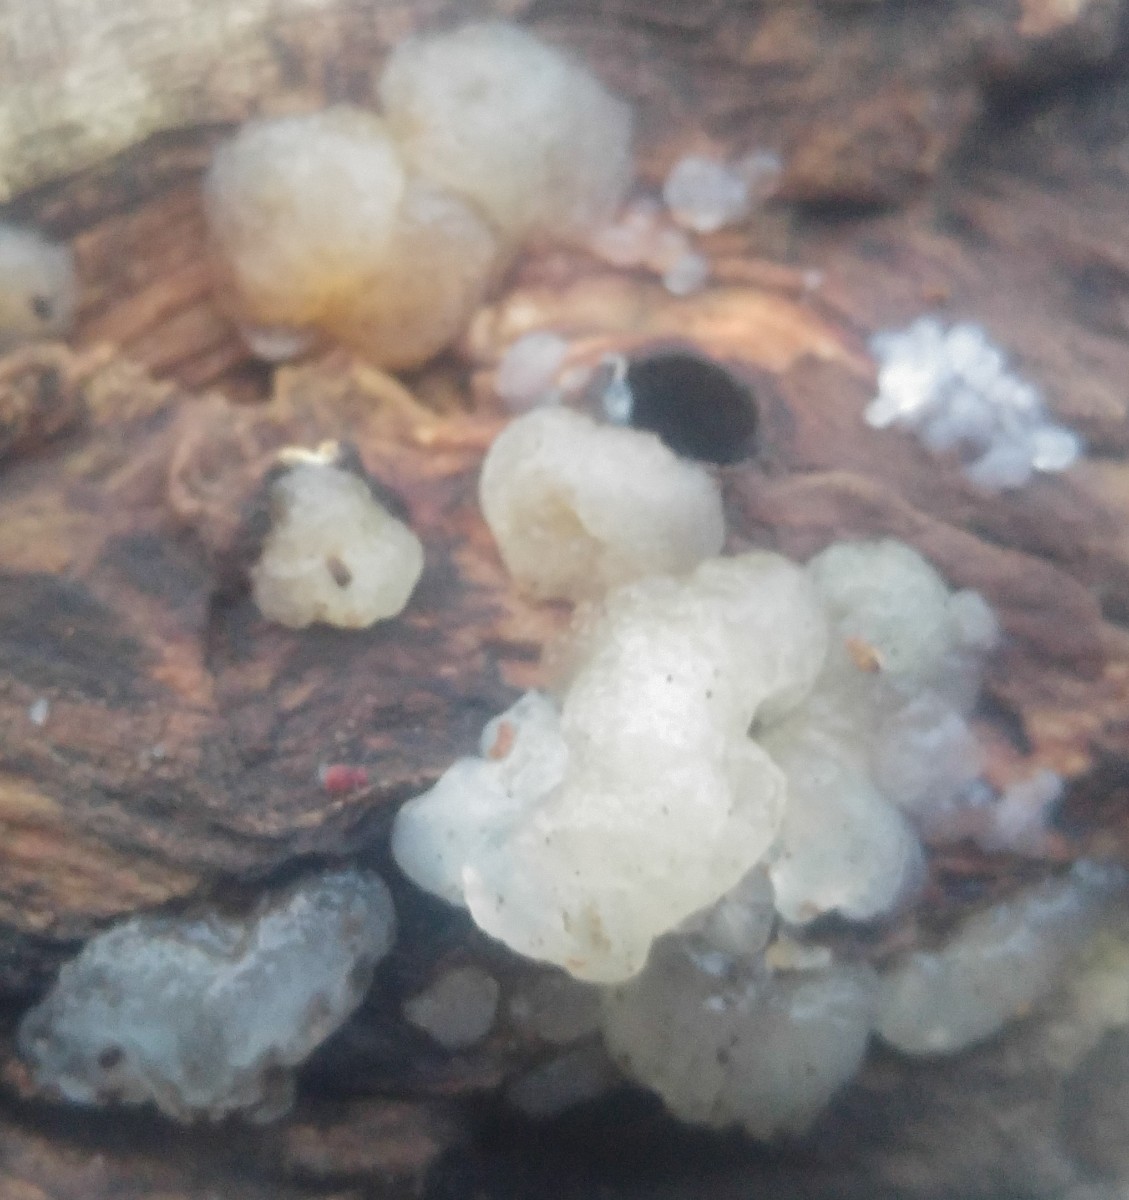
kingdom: Fungi
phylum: Basidiomycota
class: Agaricomycetes
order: Auriculariales
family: Hyaloriaceae
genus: Myxarium
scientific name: Myxarium
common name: bævretop
